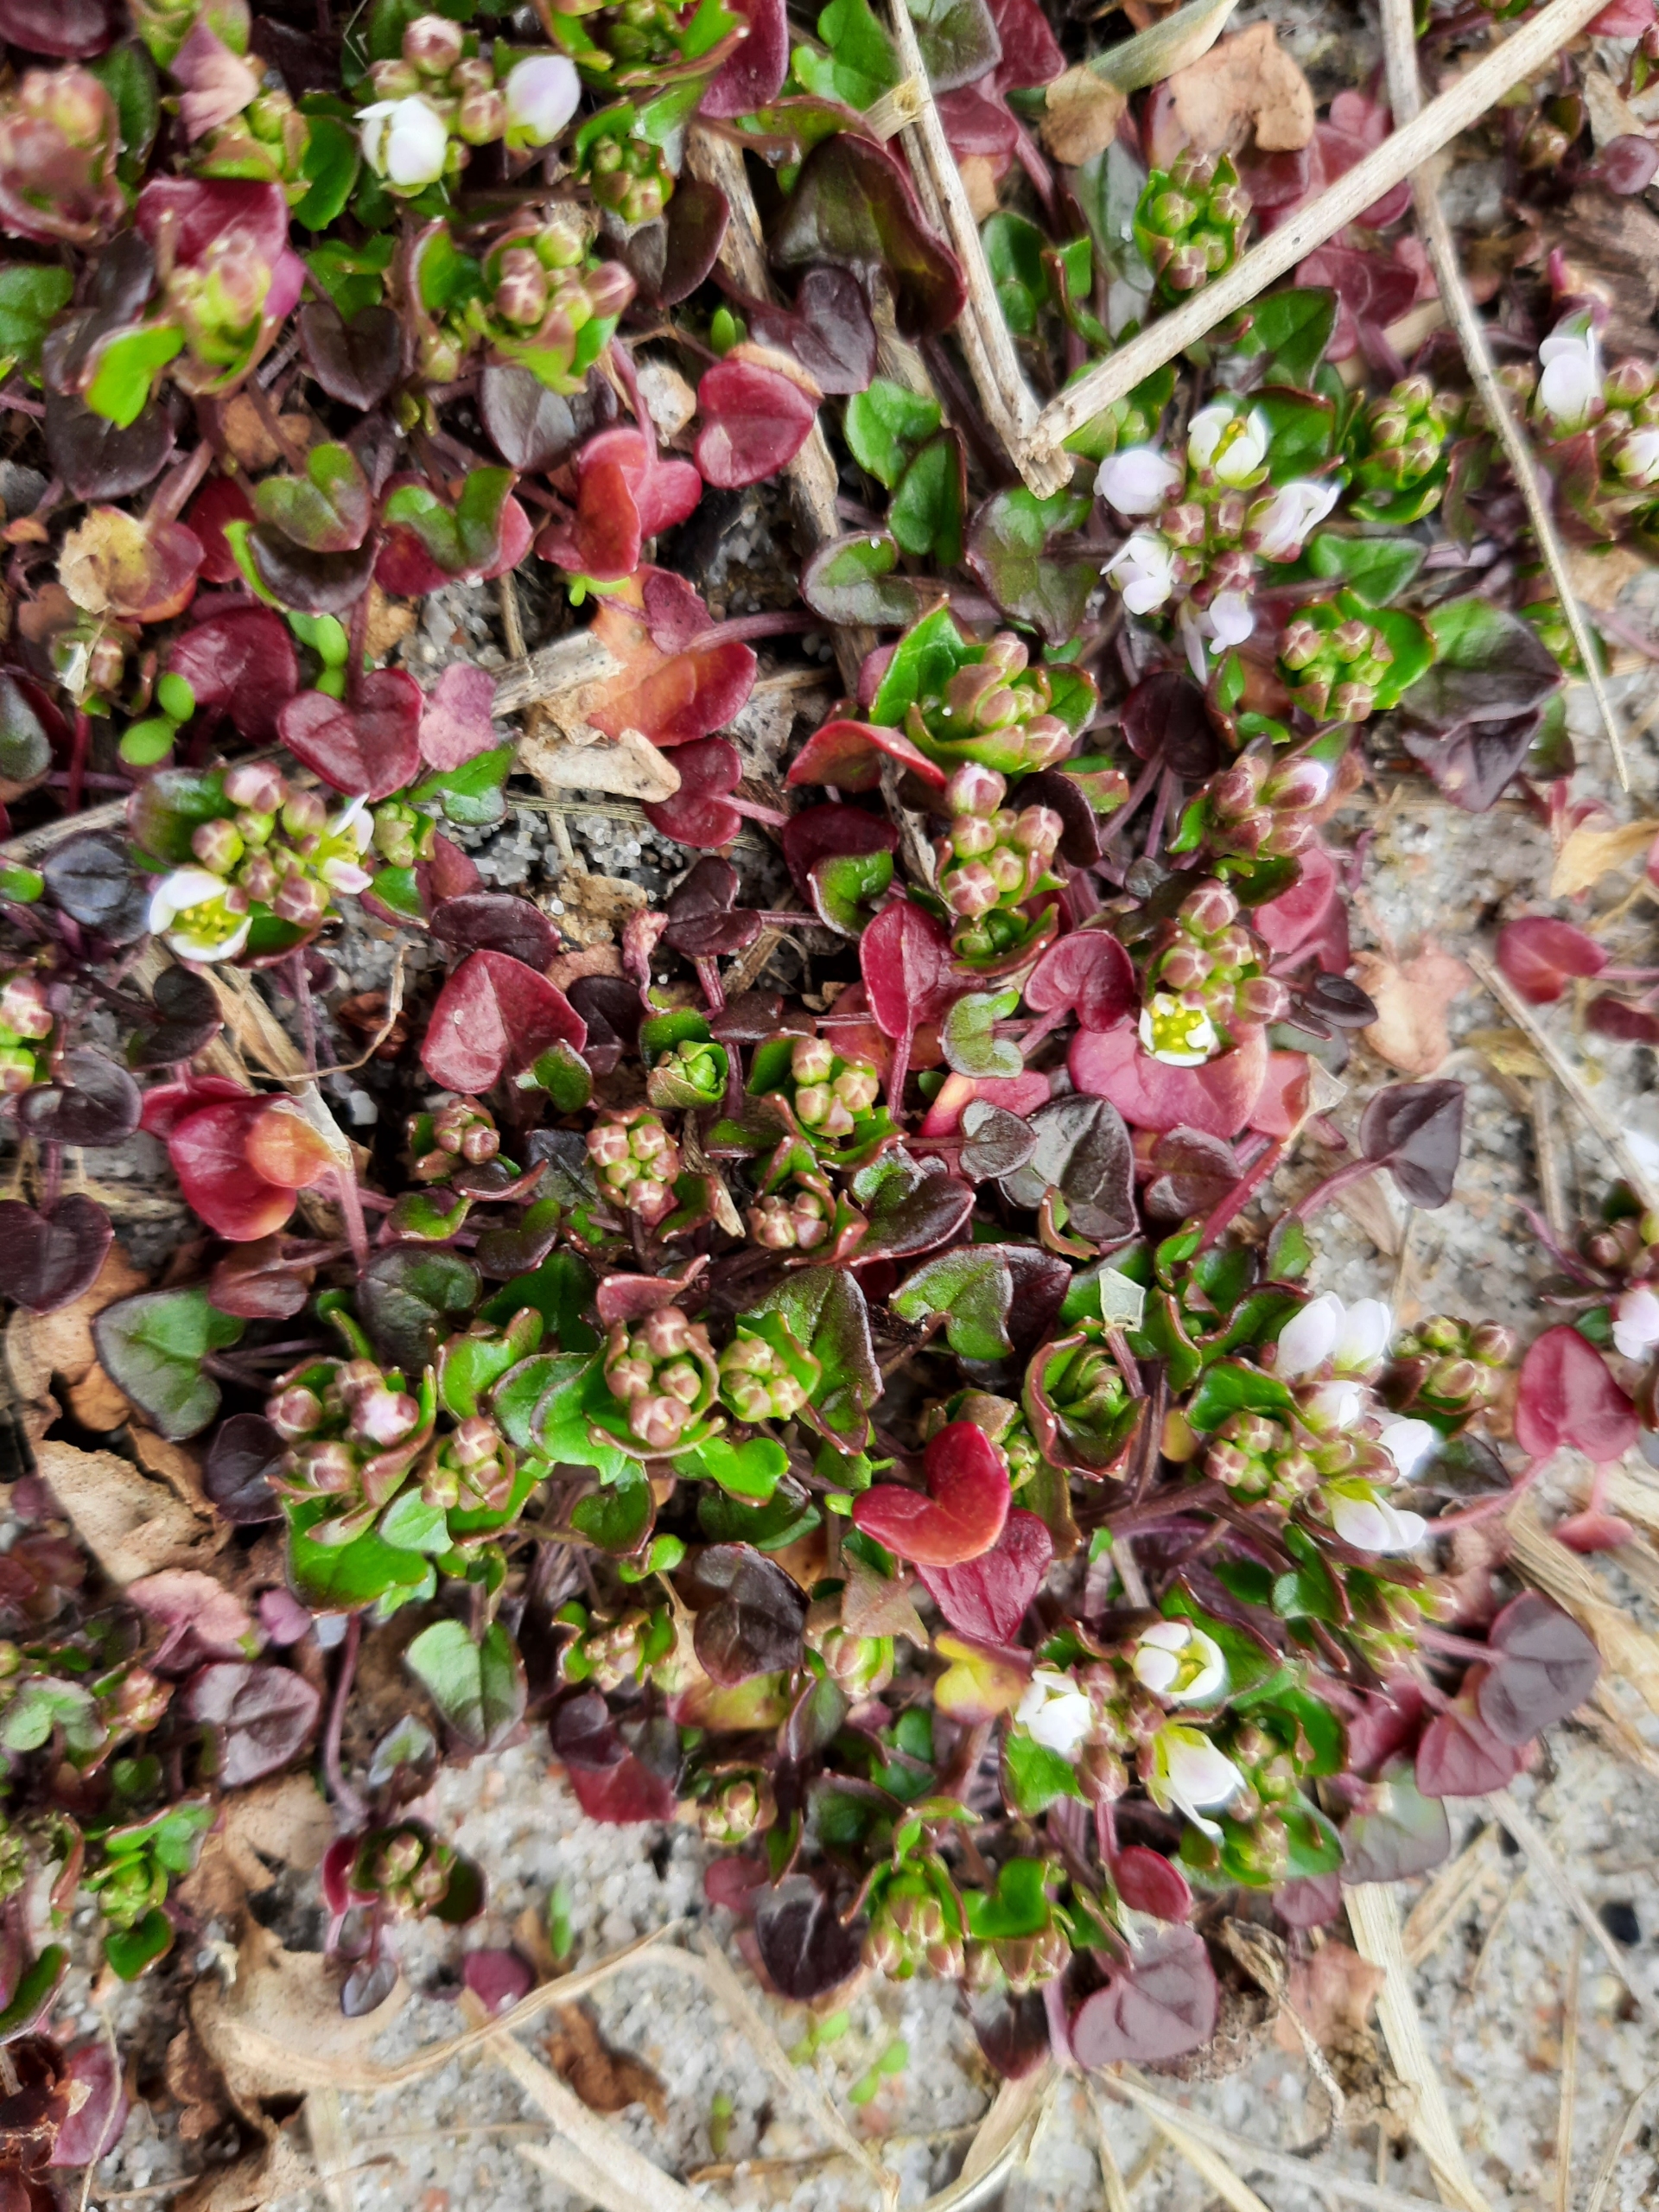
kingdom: Plantae
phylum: Tracheophyta
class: Magnoliopsida
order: Brassicales
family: Brassicaceae
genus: Cochlearia
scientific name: Cochlearia officinalis
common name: Læge-kokleare
